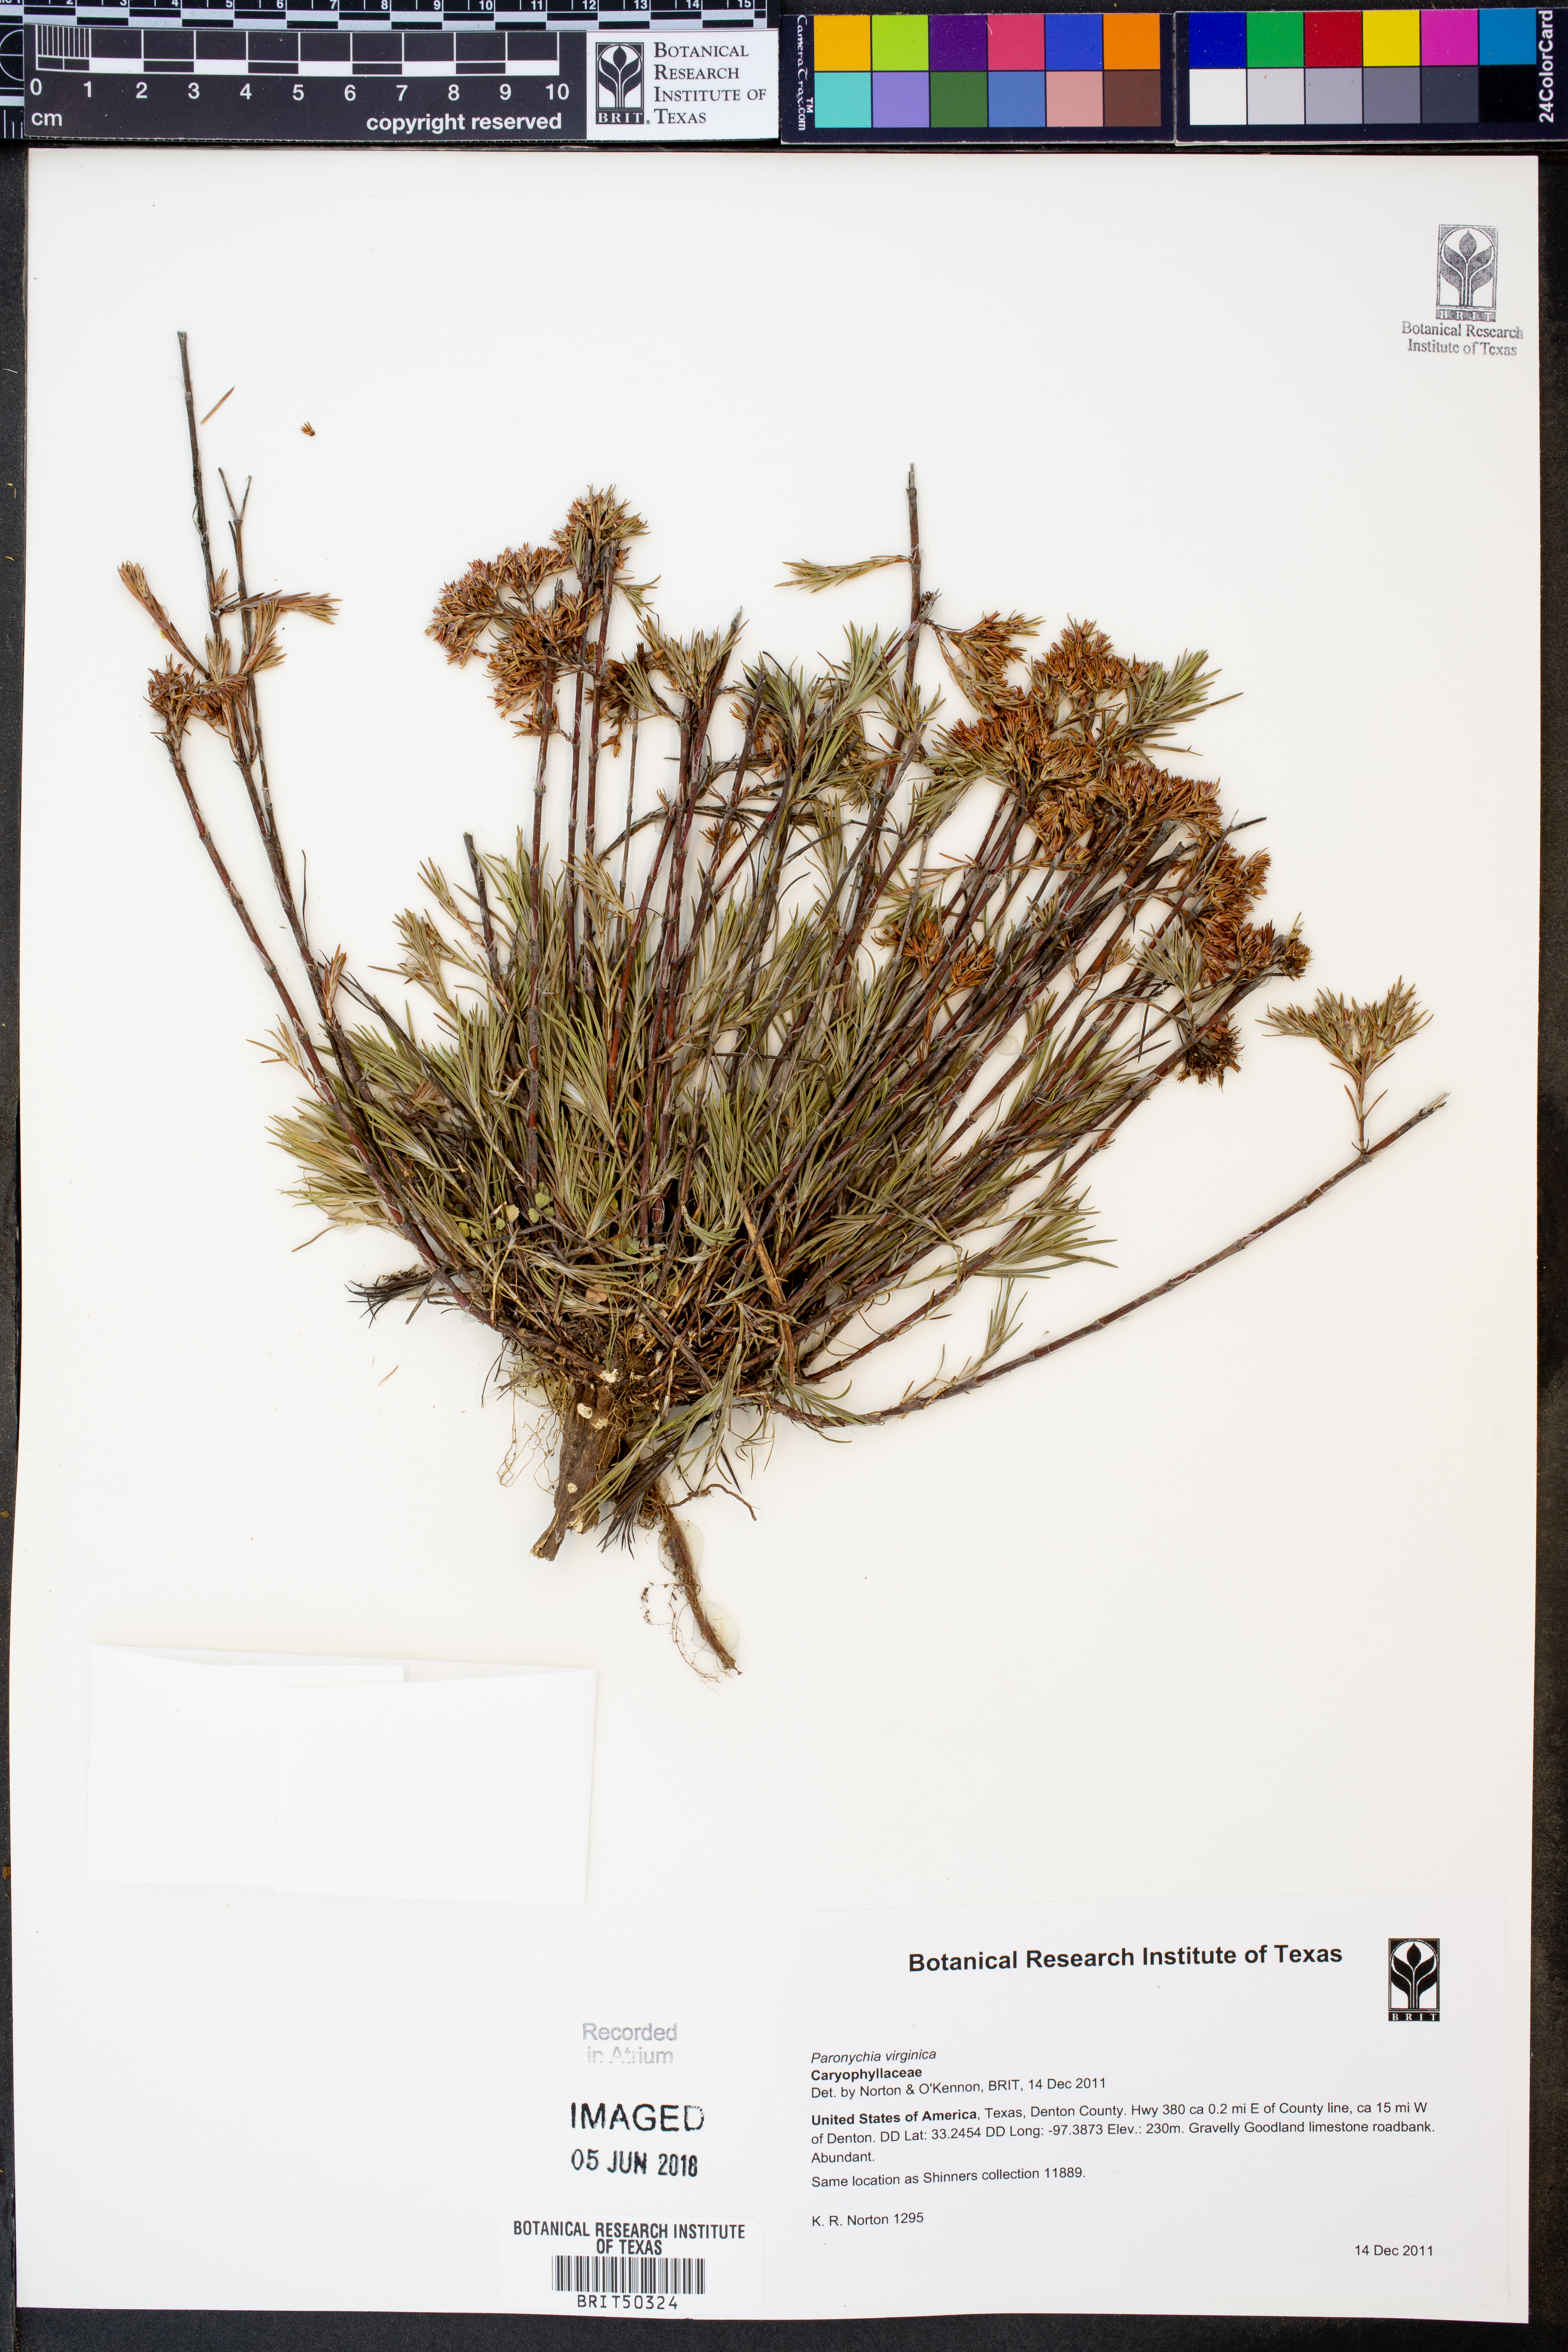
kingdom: Plantae
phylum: Tracheophyta
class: Magnoliopsida
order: Caryophyllales
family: Caryophyllaceae
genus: Paronychia
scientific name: Paronychia virginica
